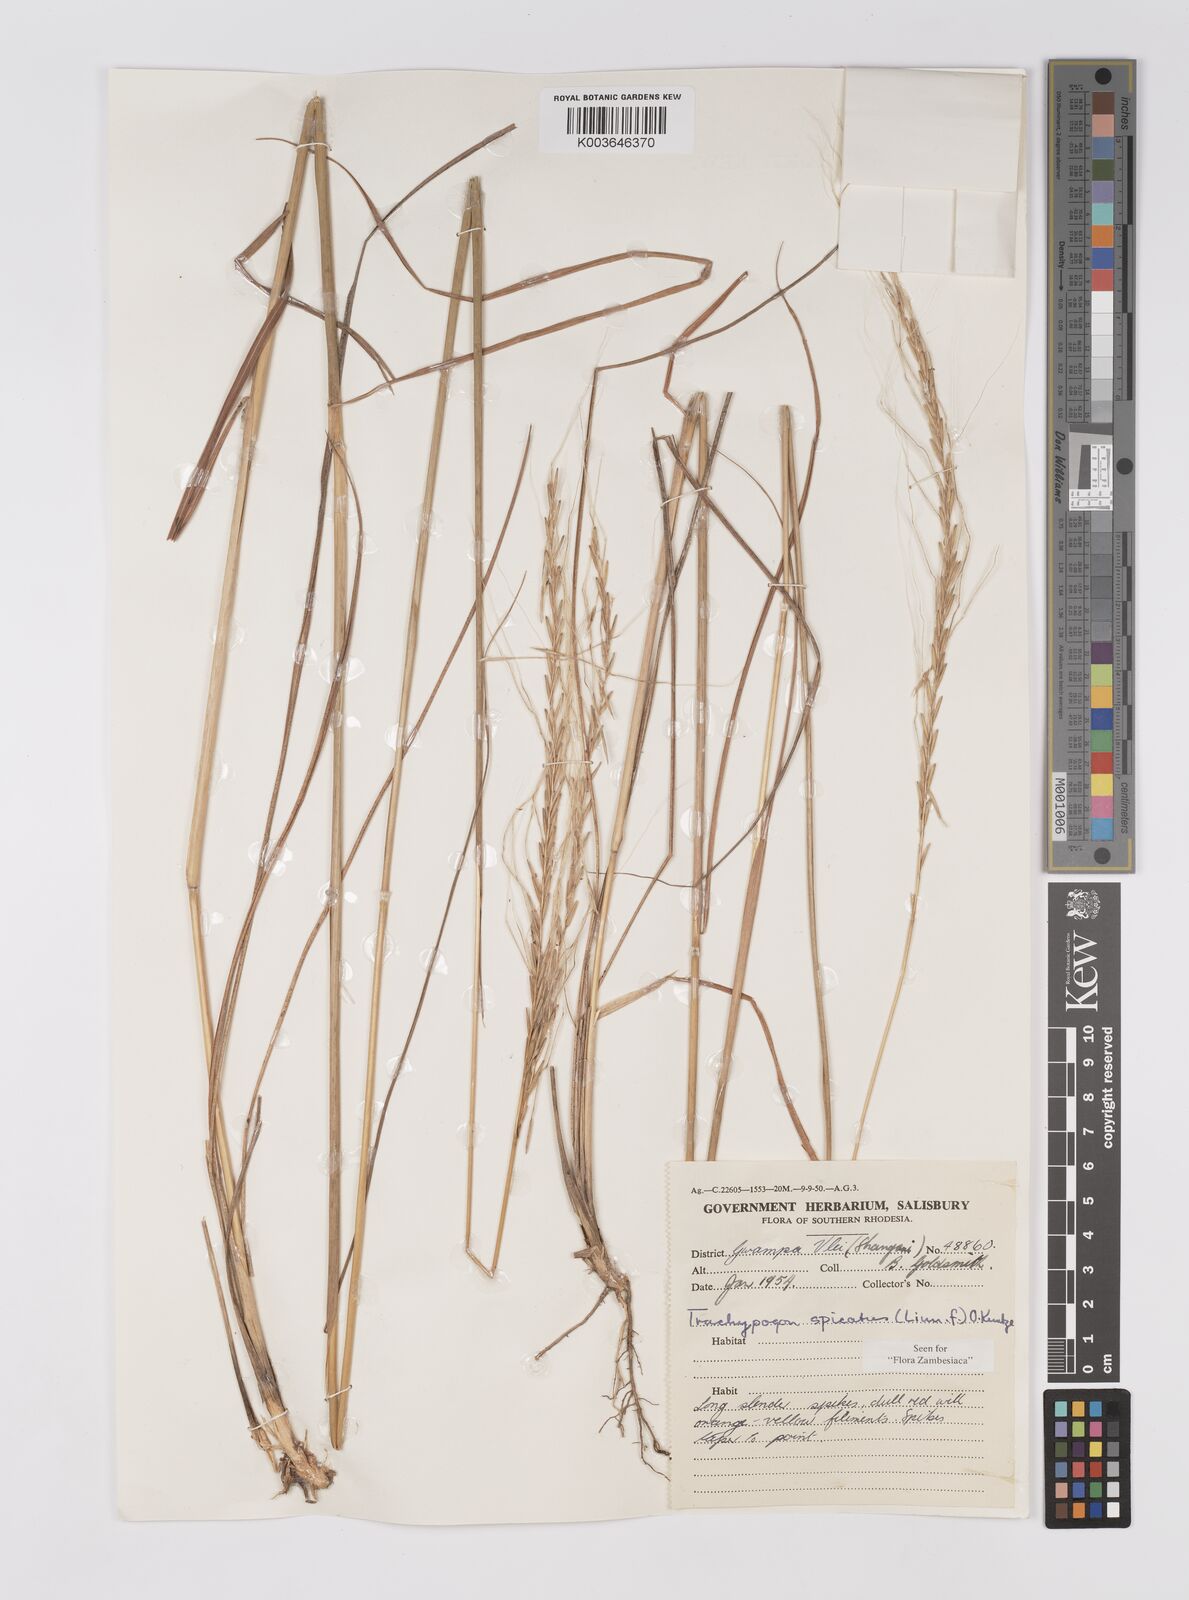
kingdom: Plantae
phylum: Tracheophyta
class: Liliopsida
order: Poales
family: Poaceae
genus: Trachypogon
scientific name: Trachypogon spicatus
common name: Crinkle-awn
